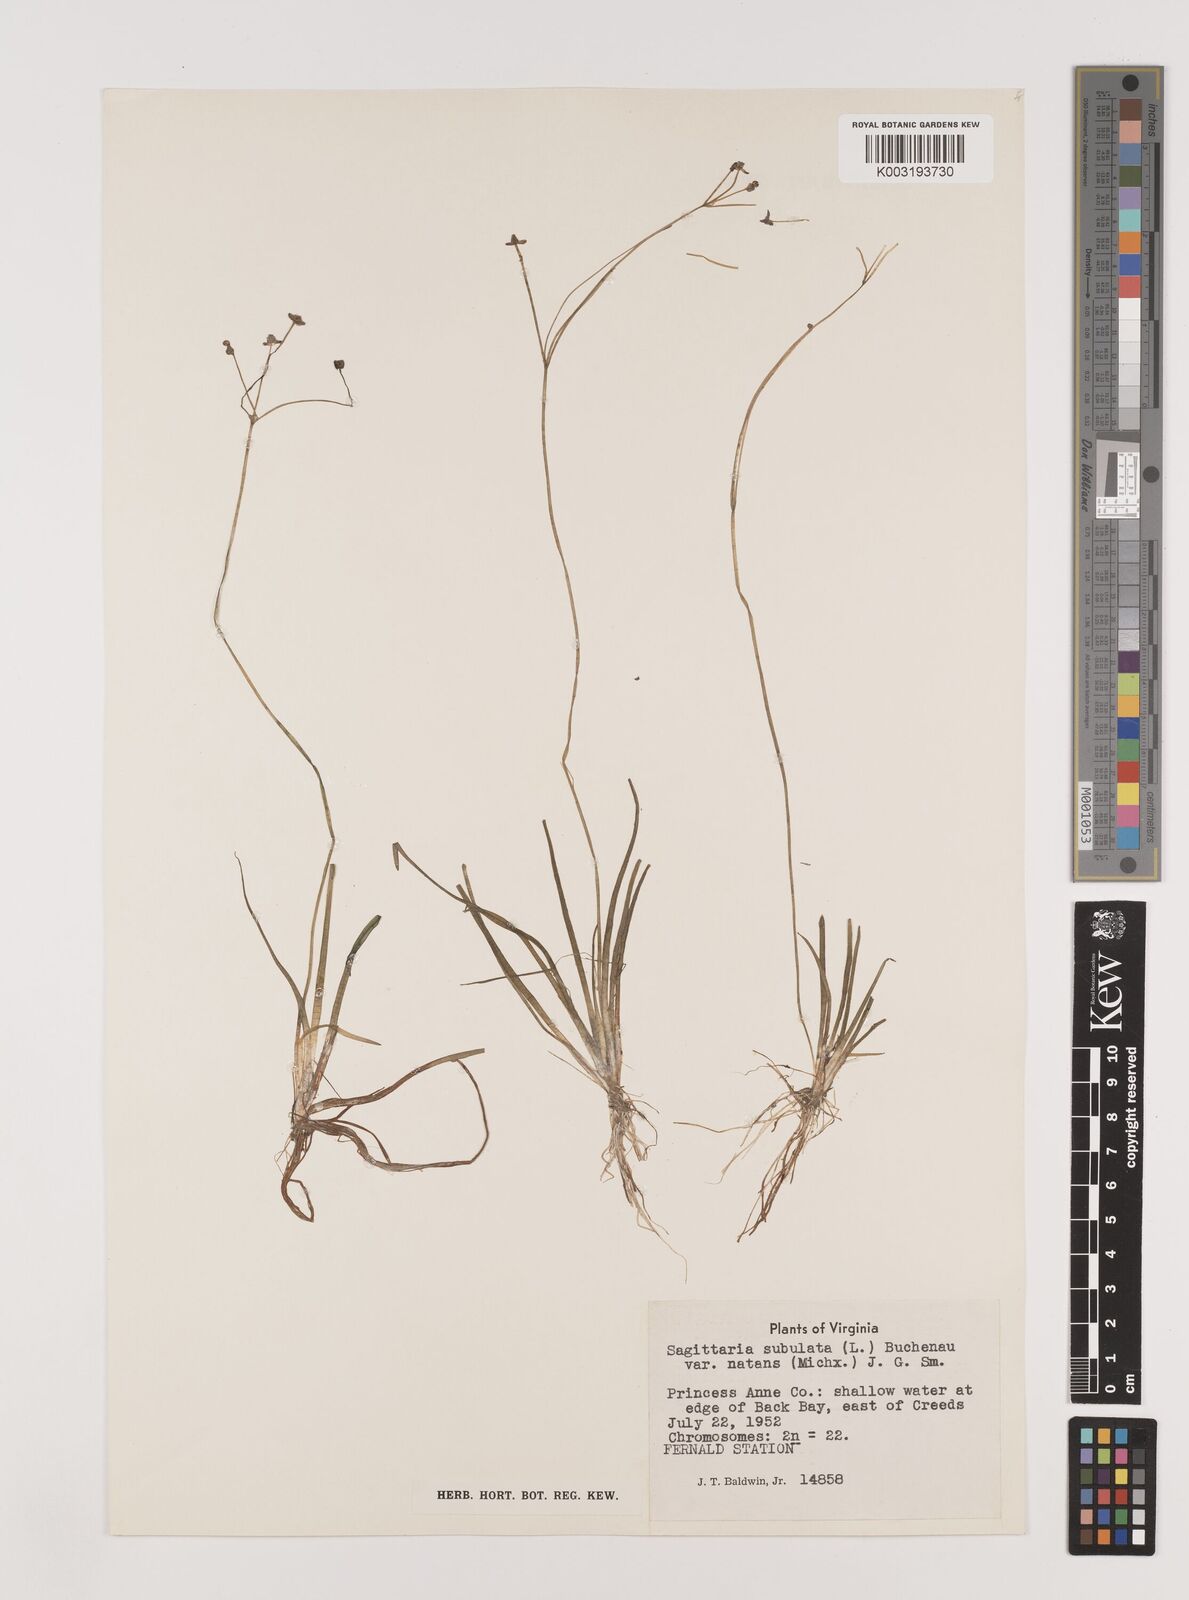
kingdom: Plantae
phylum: Tracheophyta
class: Liliopsida
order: Alismatales
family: Alismataceae
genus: Sagittaria
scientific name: Sagittaria subulata
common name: Narrow-leaved arrowhead
